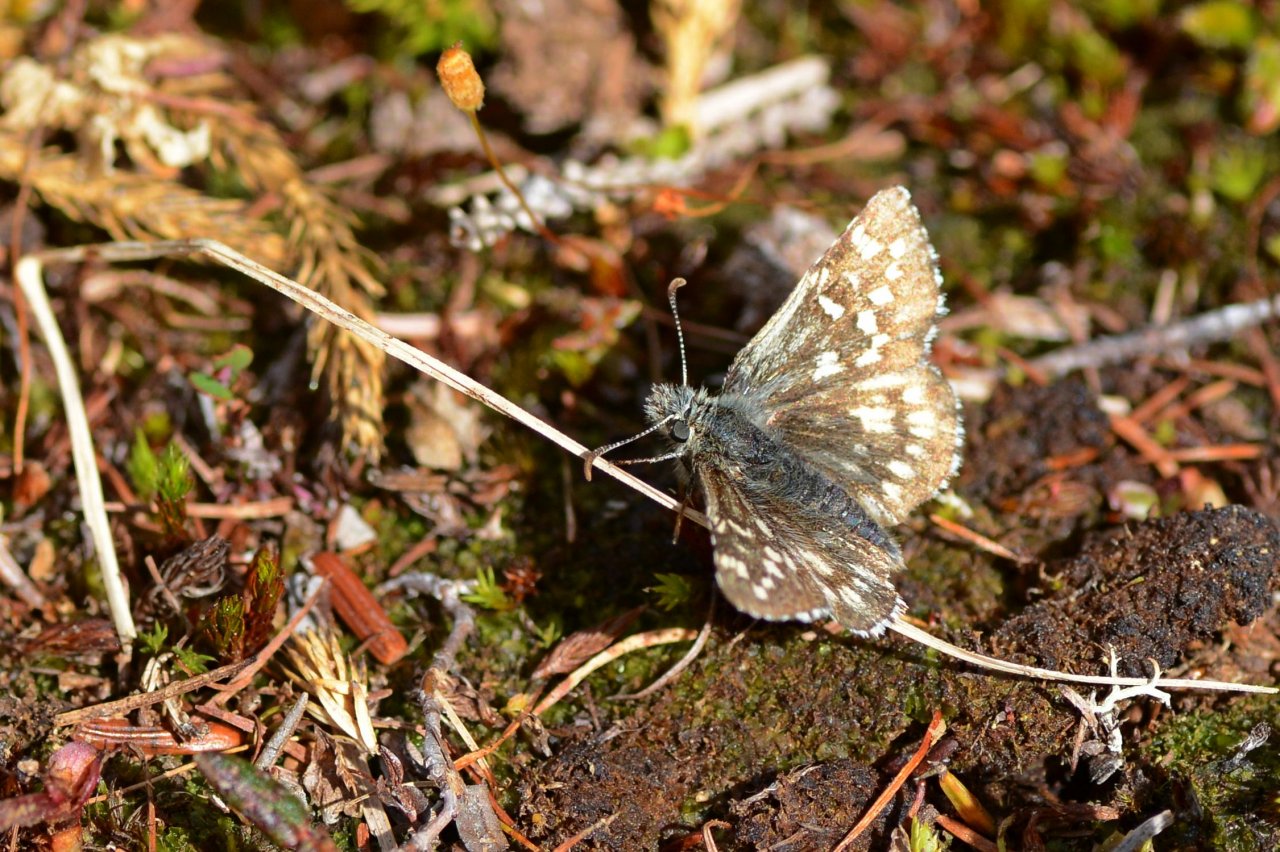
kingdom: Animalia
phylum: Arthropoda
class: Insecta
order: Lepidoptera
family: Hesperiidae
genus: Pyrgus
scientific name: Pyrgus centaureae
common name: Grizzled Skipper
